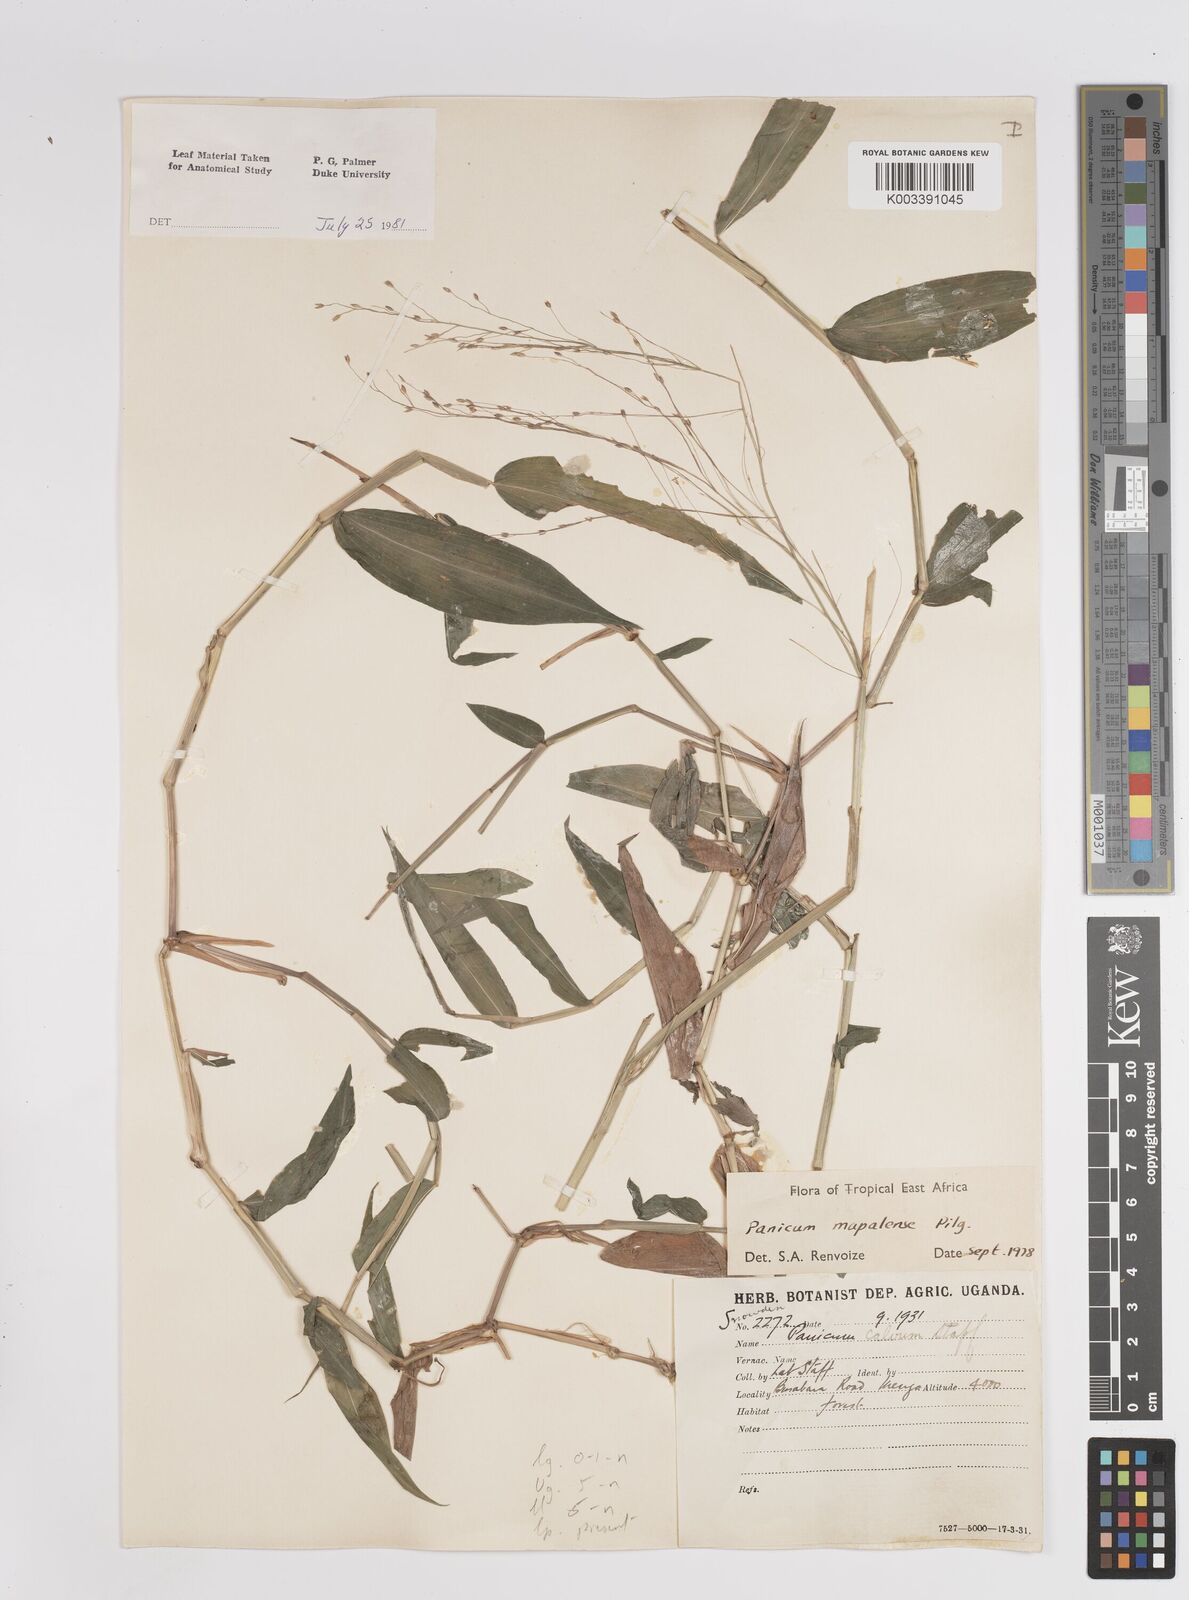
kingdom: Plantae
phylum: Tracheophyta
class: Liliopsida
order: Poales
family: Poaceae
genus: Panicum
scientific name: Panicum mapalense
